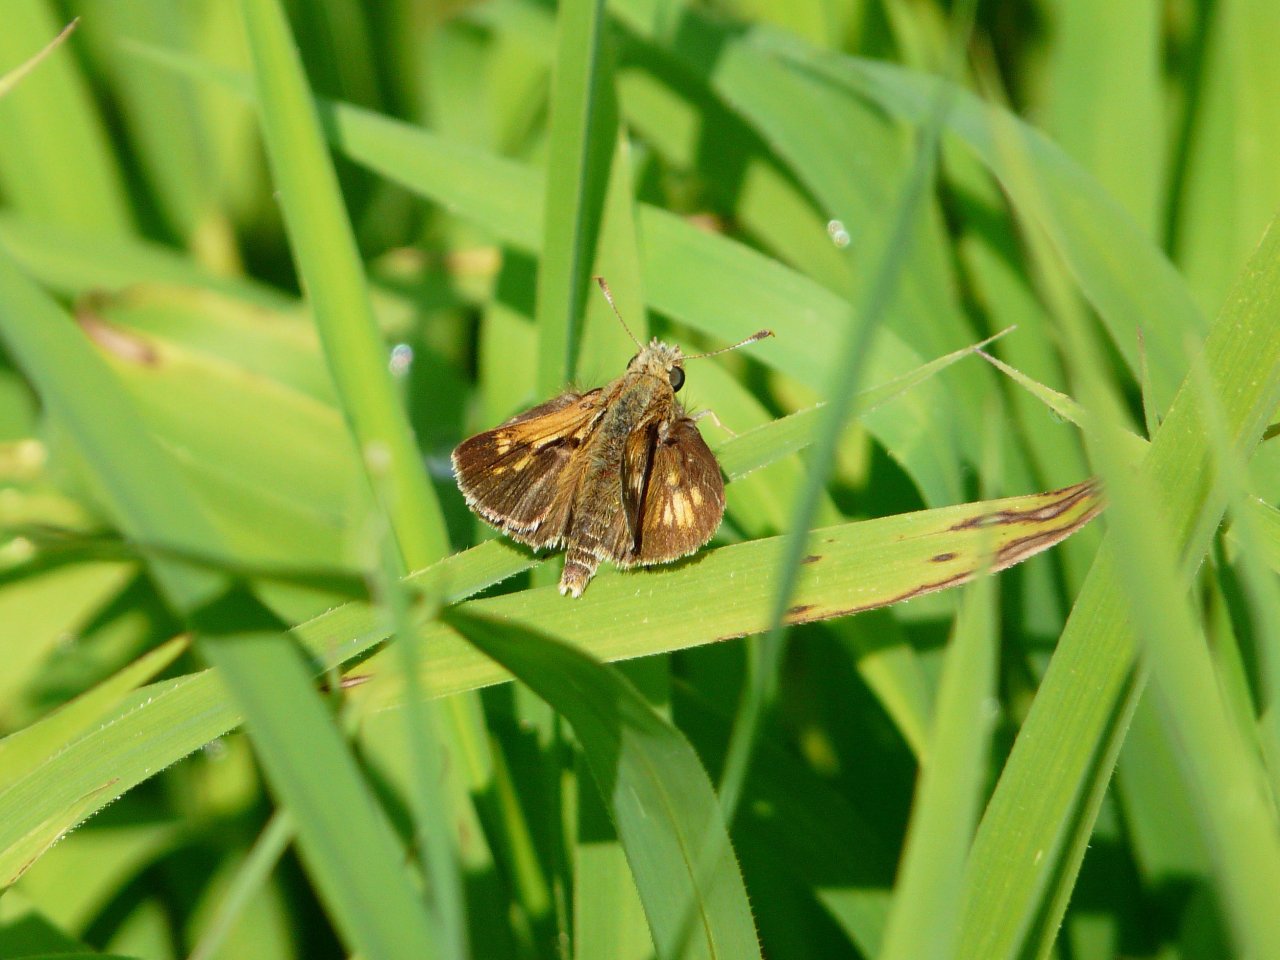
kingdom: Animalia
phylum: Arthropoda
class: Insecta
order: Lepidoptera
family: Hesperiidae
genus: Polites
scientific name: Polites coras
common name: Peck's Skipper
